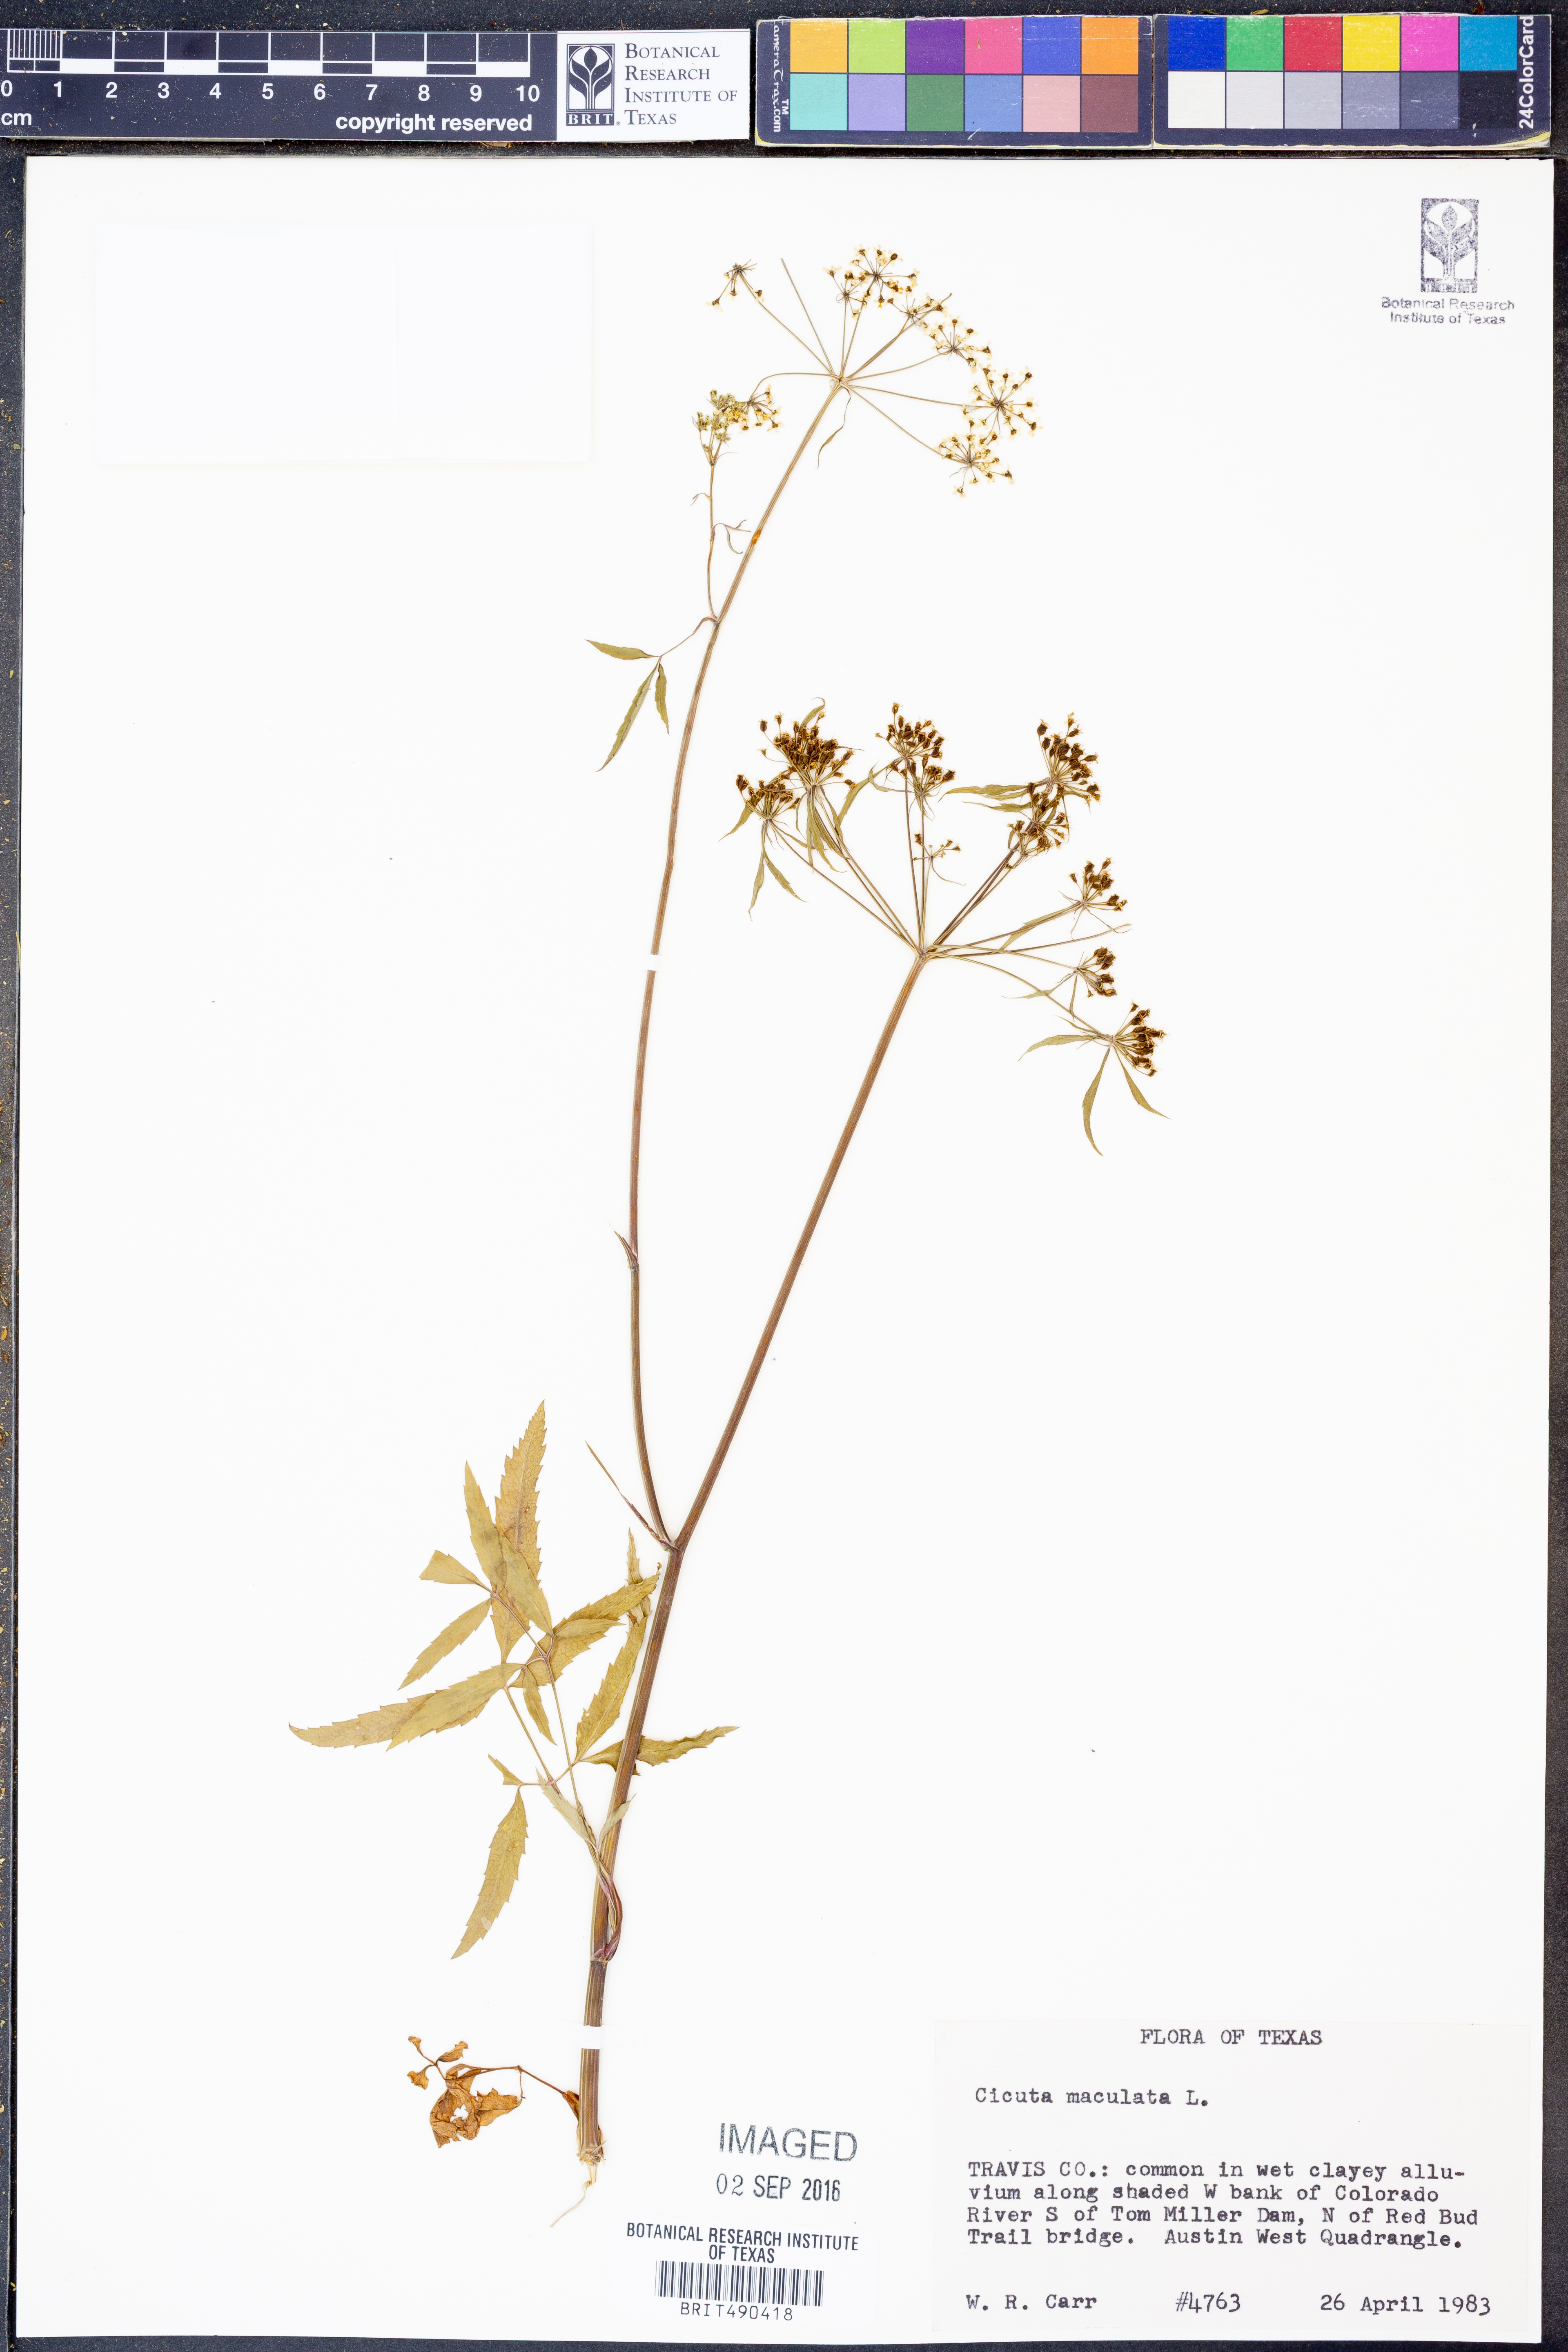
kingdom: Plantae
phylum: Tracheophyta
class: Magnoliopsida
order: Apiales
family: Apiaceae
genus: Cicuta
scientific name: Cicuta maculata
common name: Spotted cowbane
